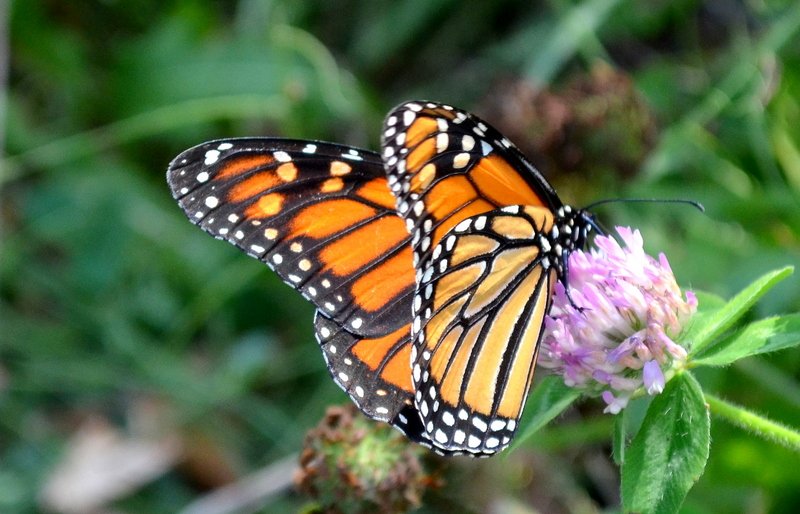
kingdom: Animalia
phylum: Arthropoda
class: Insecta
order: Lepidoptera
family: Nymphalidae
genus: Danaus
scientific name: Danaus plexippus
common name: Monarch
